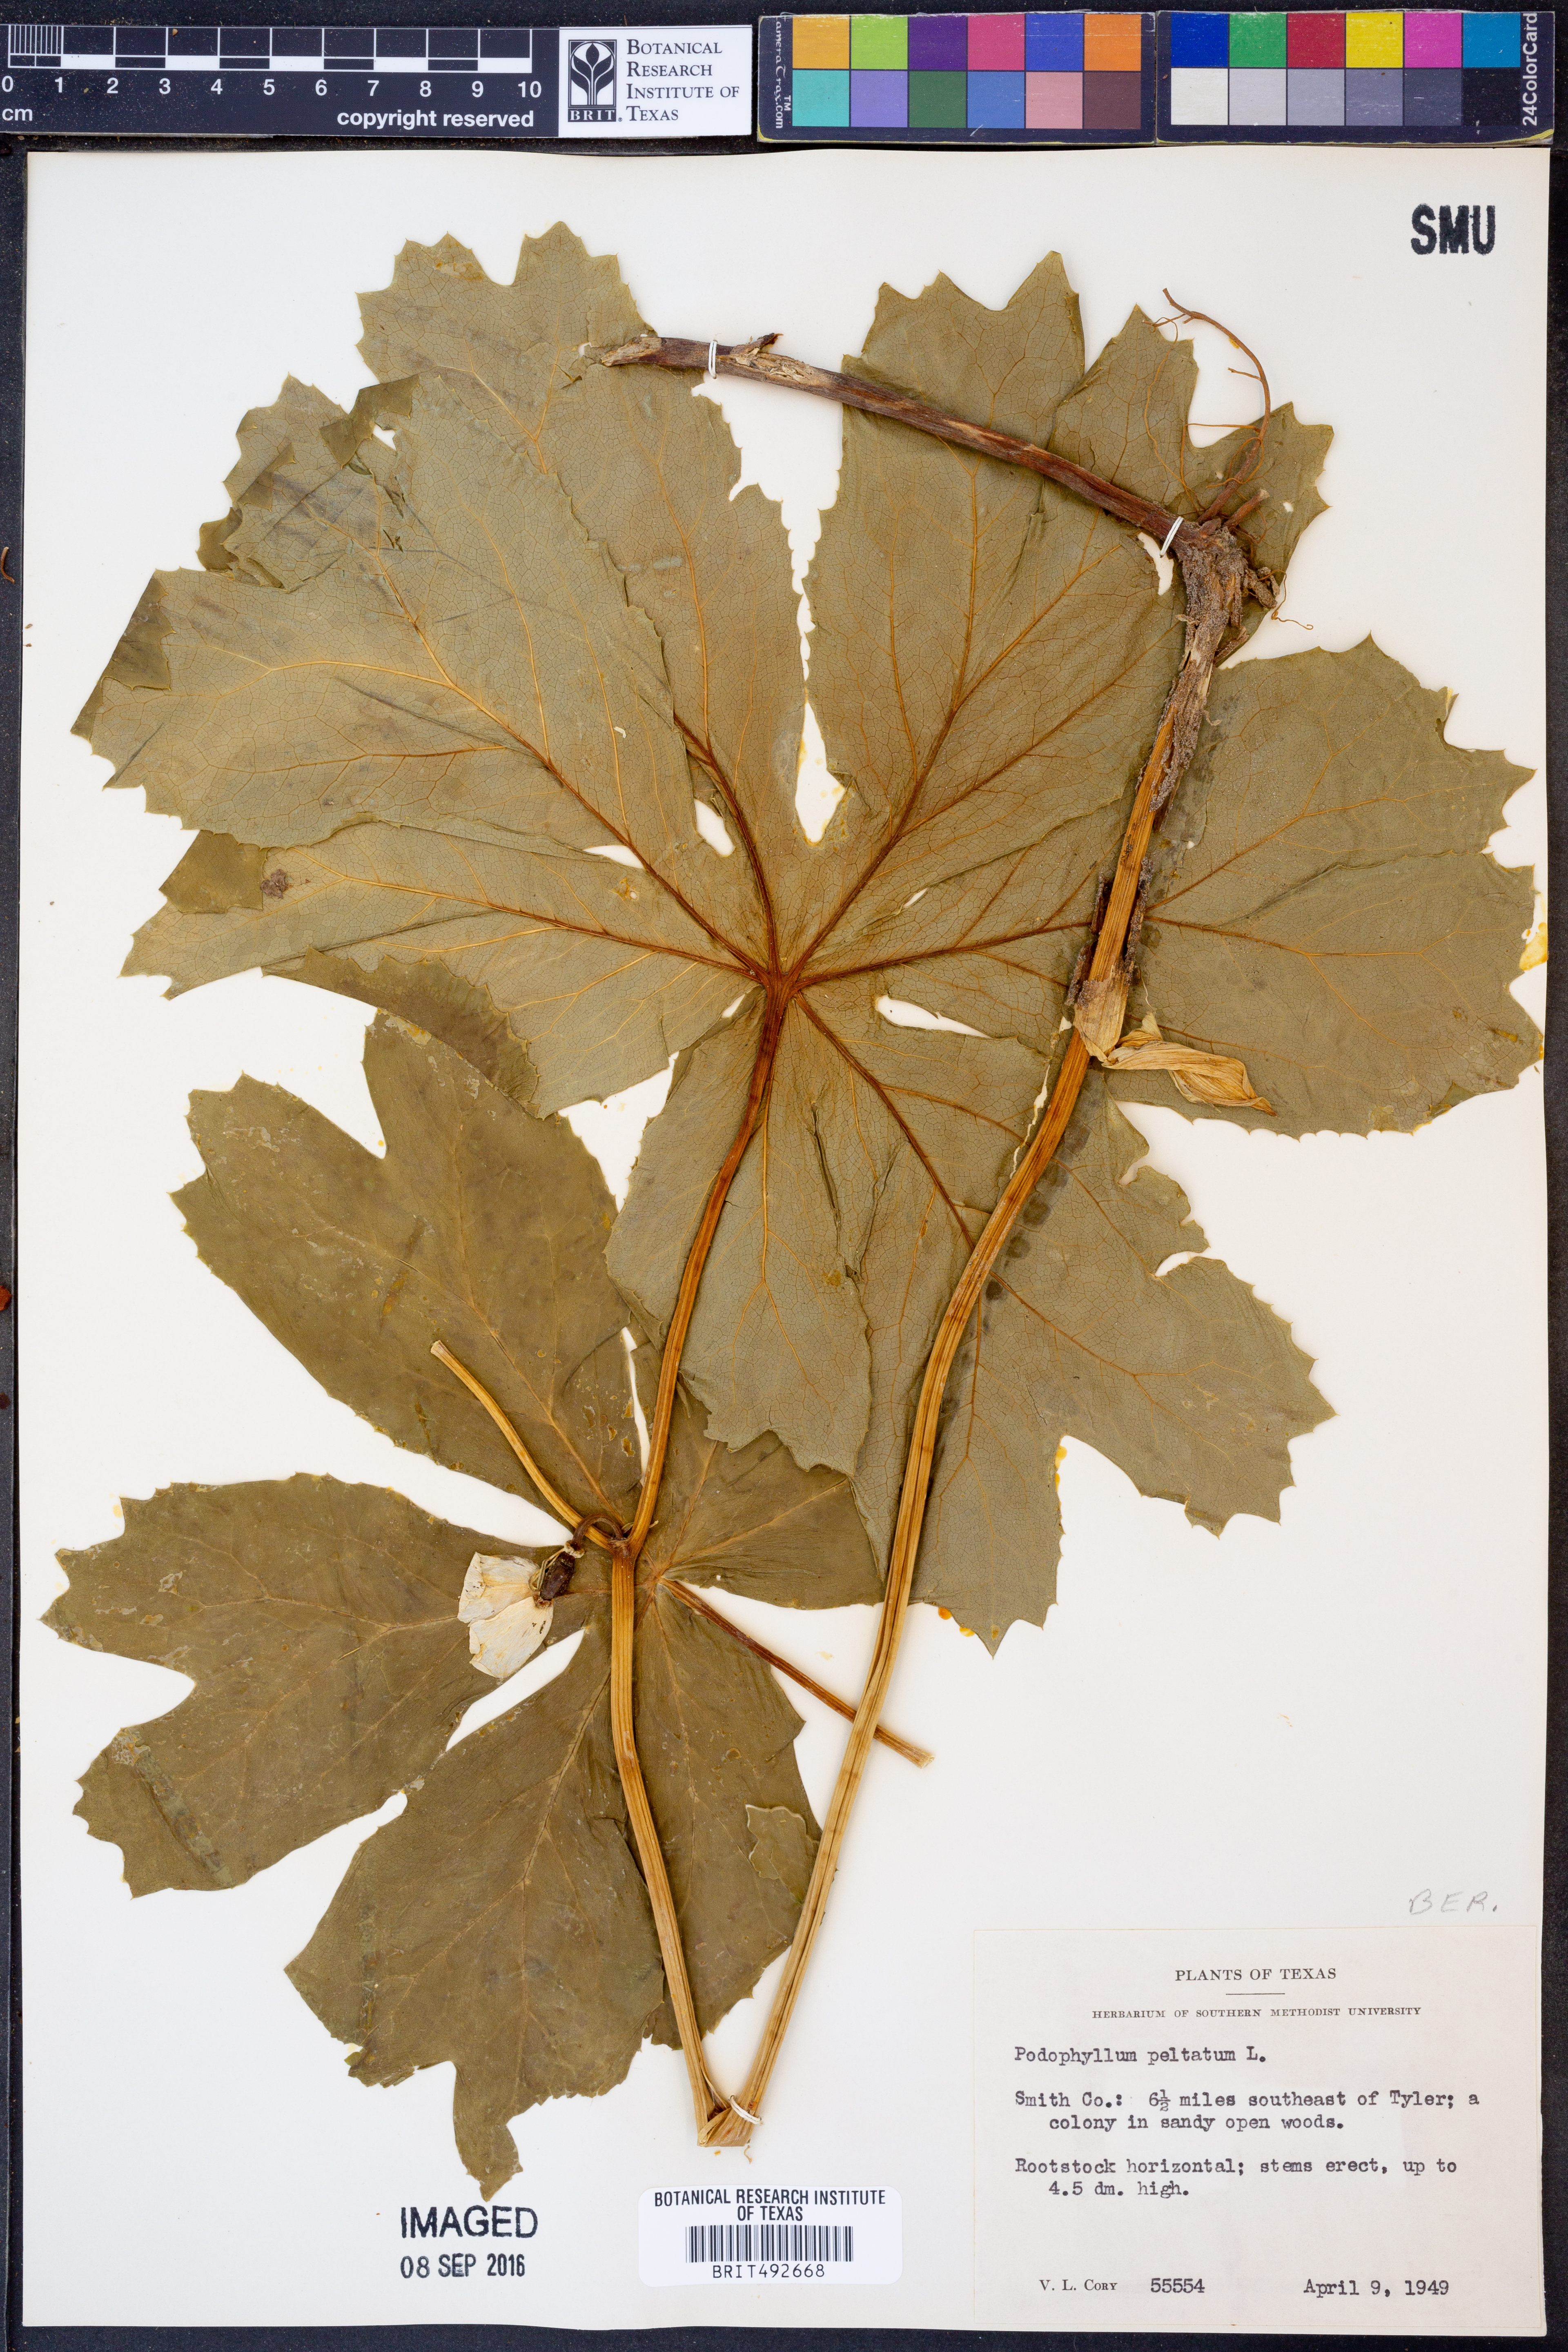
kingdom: Plantae
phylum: Tracheophyta
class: Magnoliopsida
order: Ranunculales
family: Berberidaceae
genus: Podophyllum
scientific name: Podophyllum peltatum
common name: Wild mandrake
